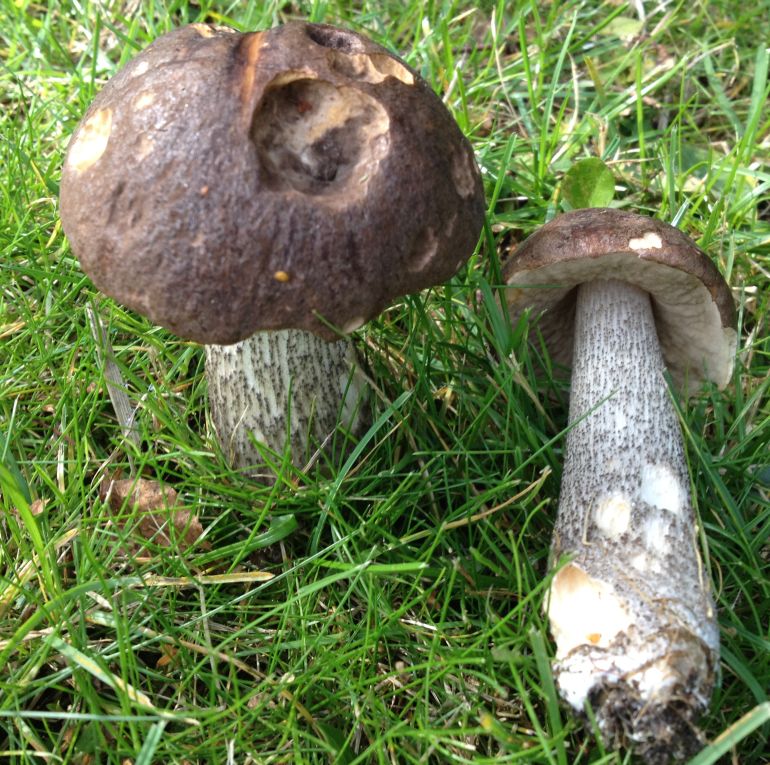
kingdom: Fungi
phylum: Basidiomycota
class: Agaricomycetes
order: Boletales
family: Boletaceae
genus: Leccinum
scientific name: Leccinum scabrum
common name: brun skælrørhat
